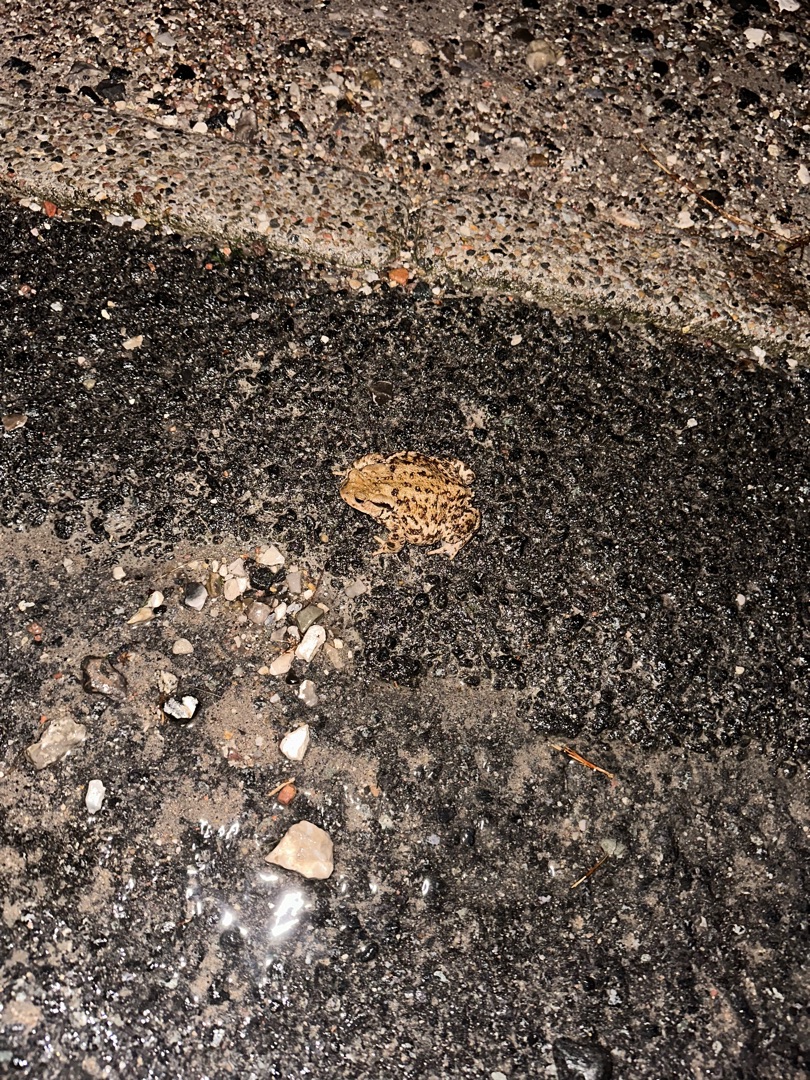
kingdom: Animalia
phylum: Chordata
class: Amphibia
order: Anura
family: Bufonidae
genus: Bufo
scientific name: Bufo bufo
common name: Skrubtudse
